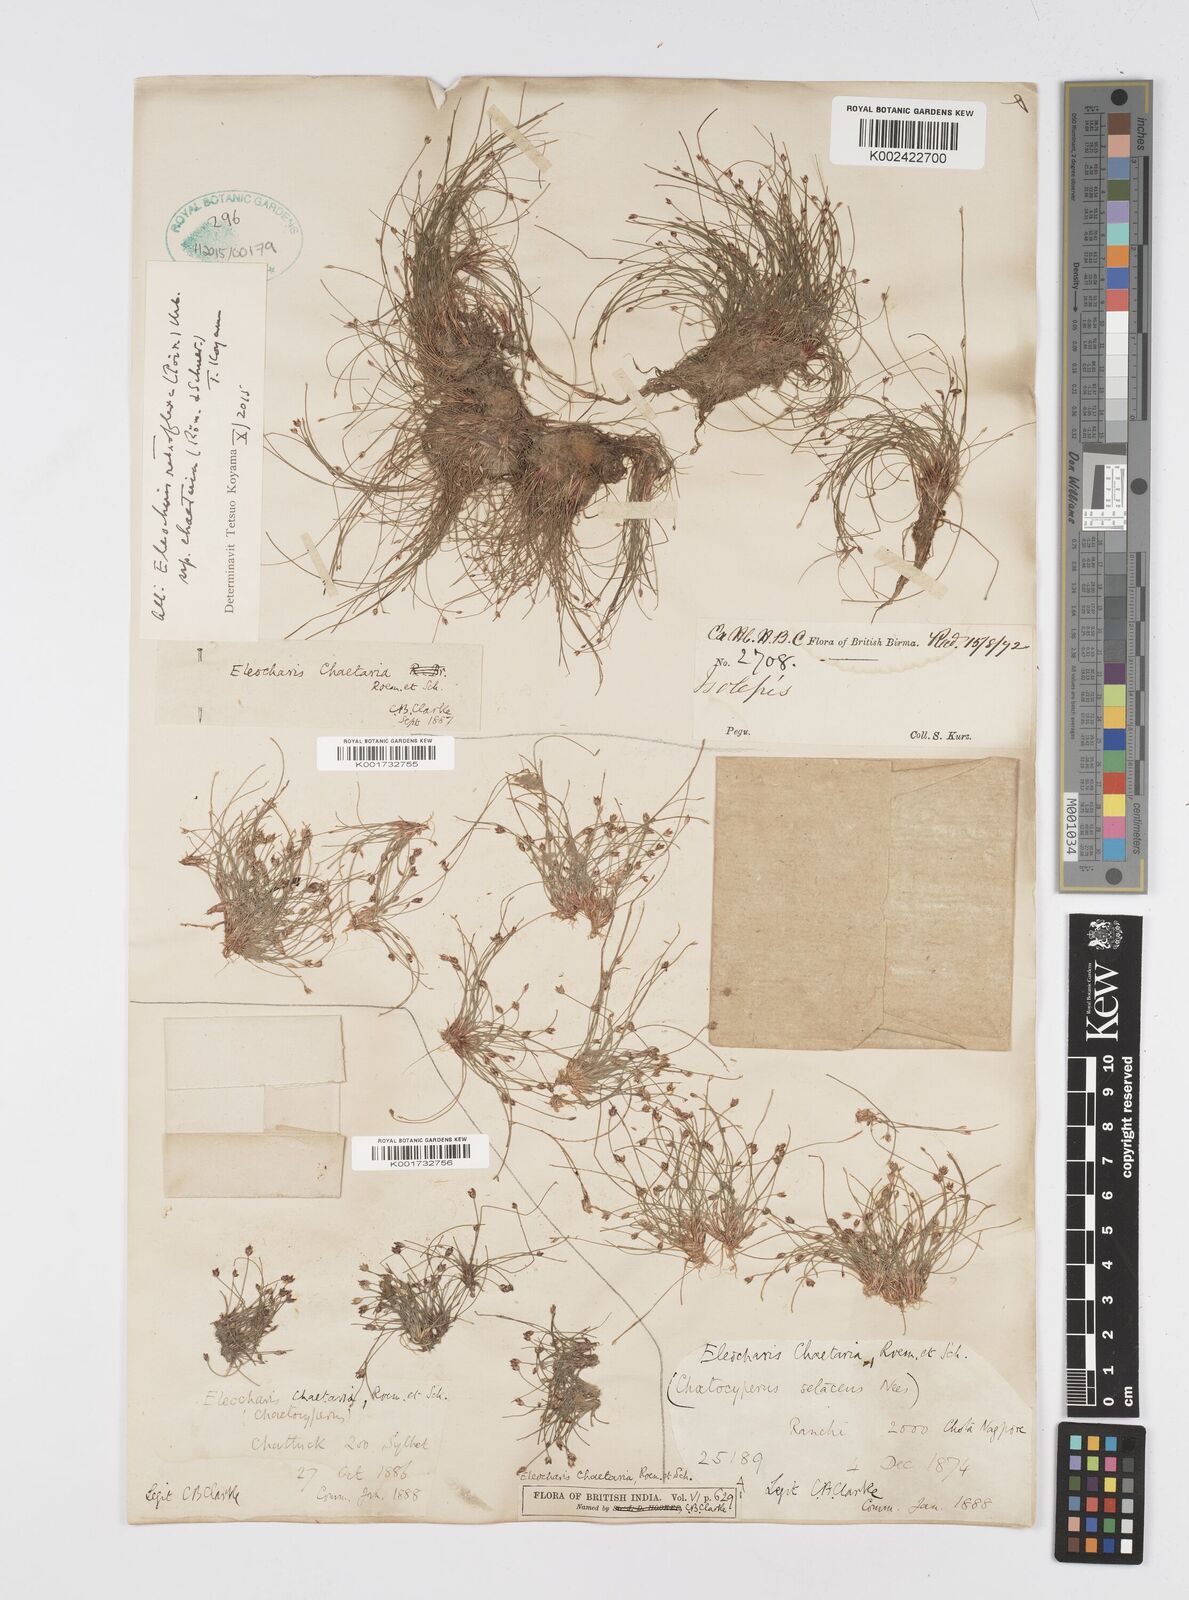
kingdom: Plantae
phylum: Tracheophyta
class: Liliopsida
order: Poales
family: Cyperaceae
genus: Eleocharis
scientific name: Eleocharis retroflexa
